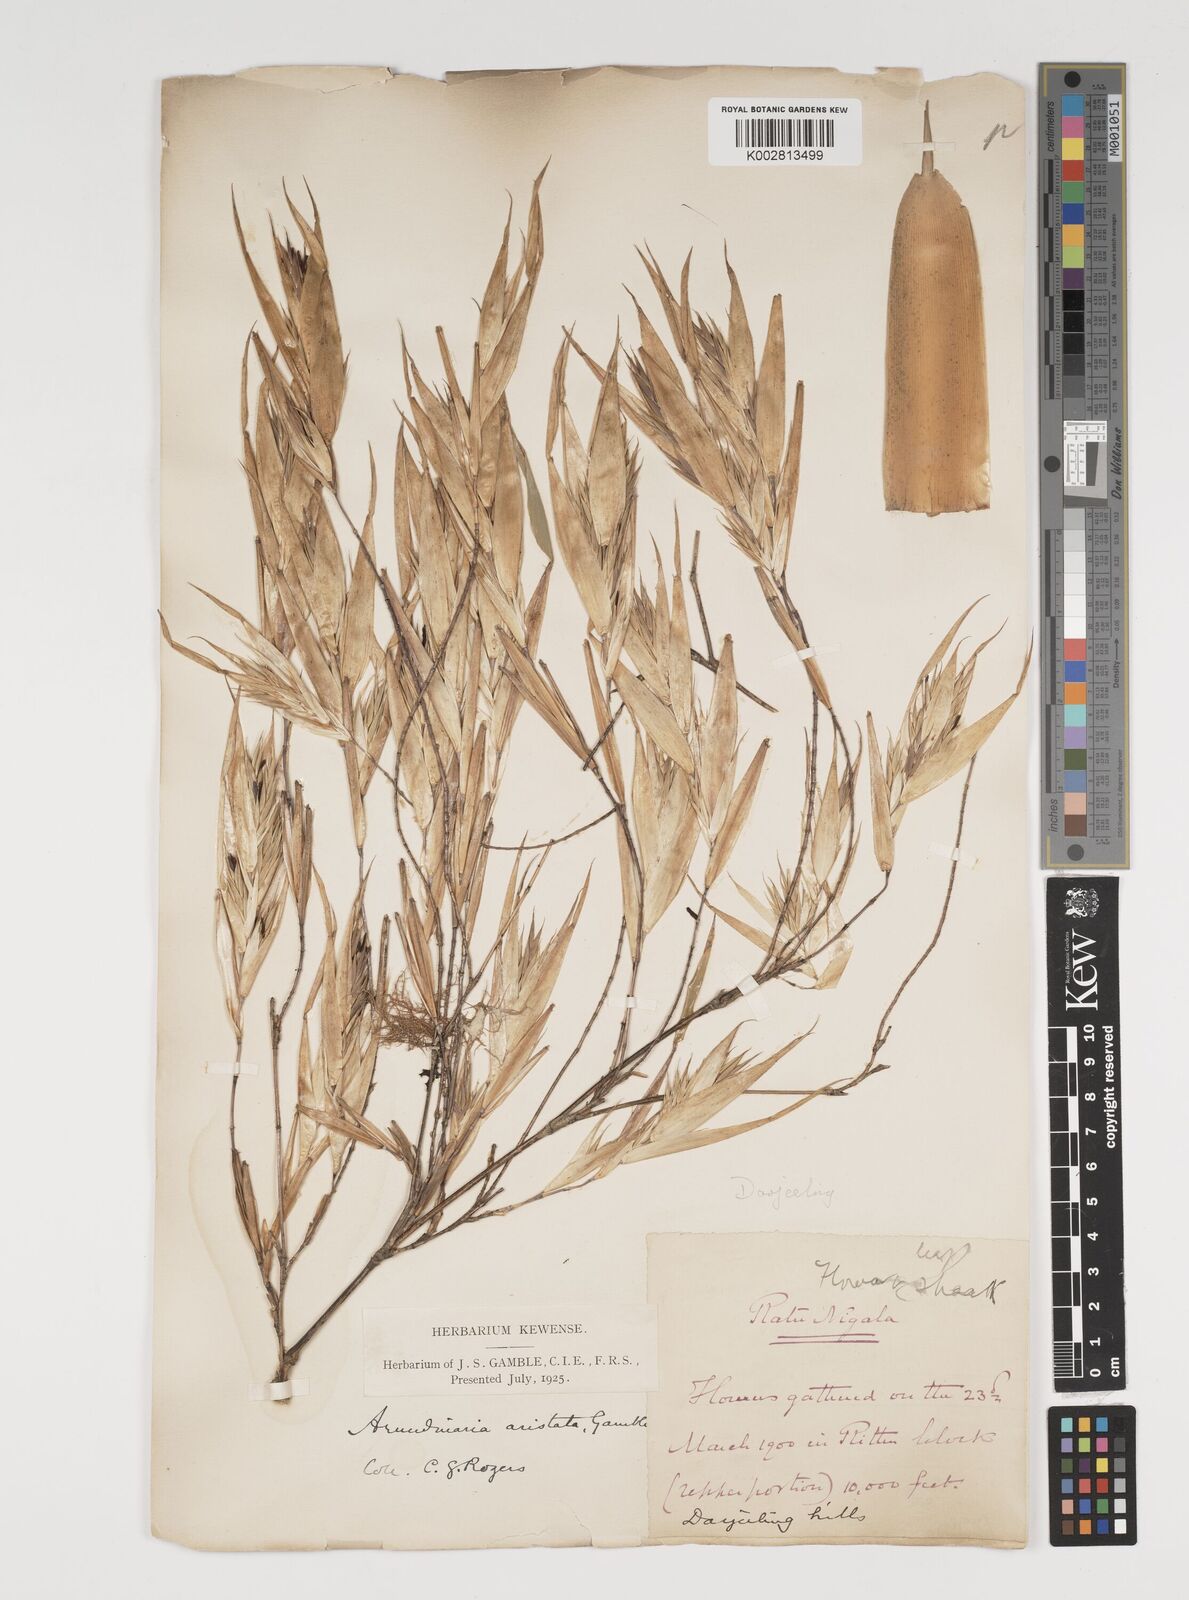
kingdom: Plantae
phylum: Tracheophyta
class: Liliopsida
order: Poales
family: Poaceae
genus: Thamnocalamus
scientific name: Thamnocalamus spathiflorus
